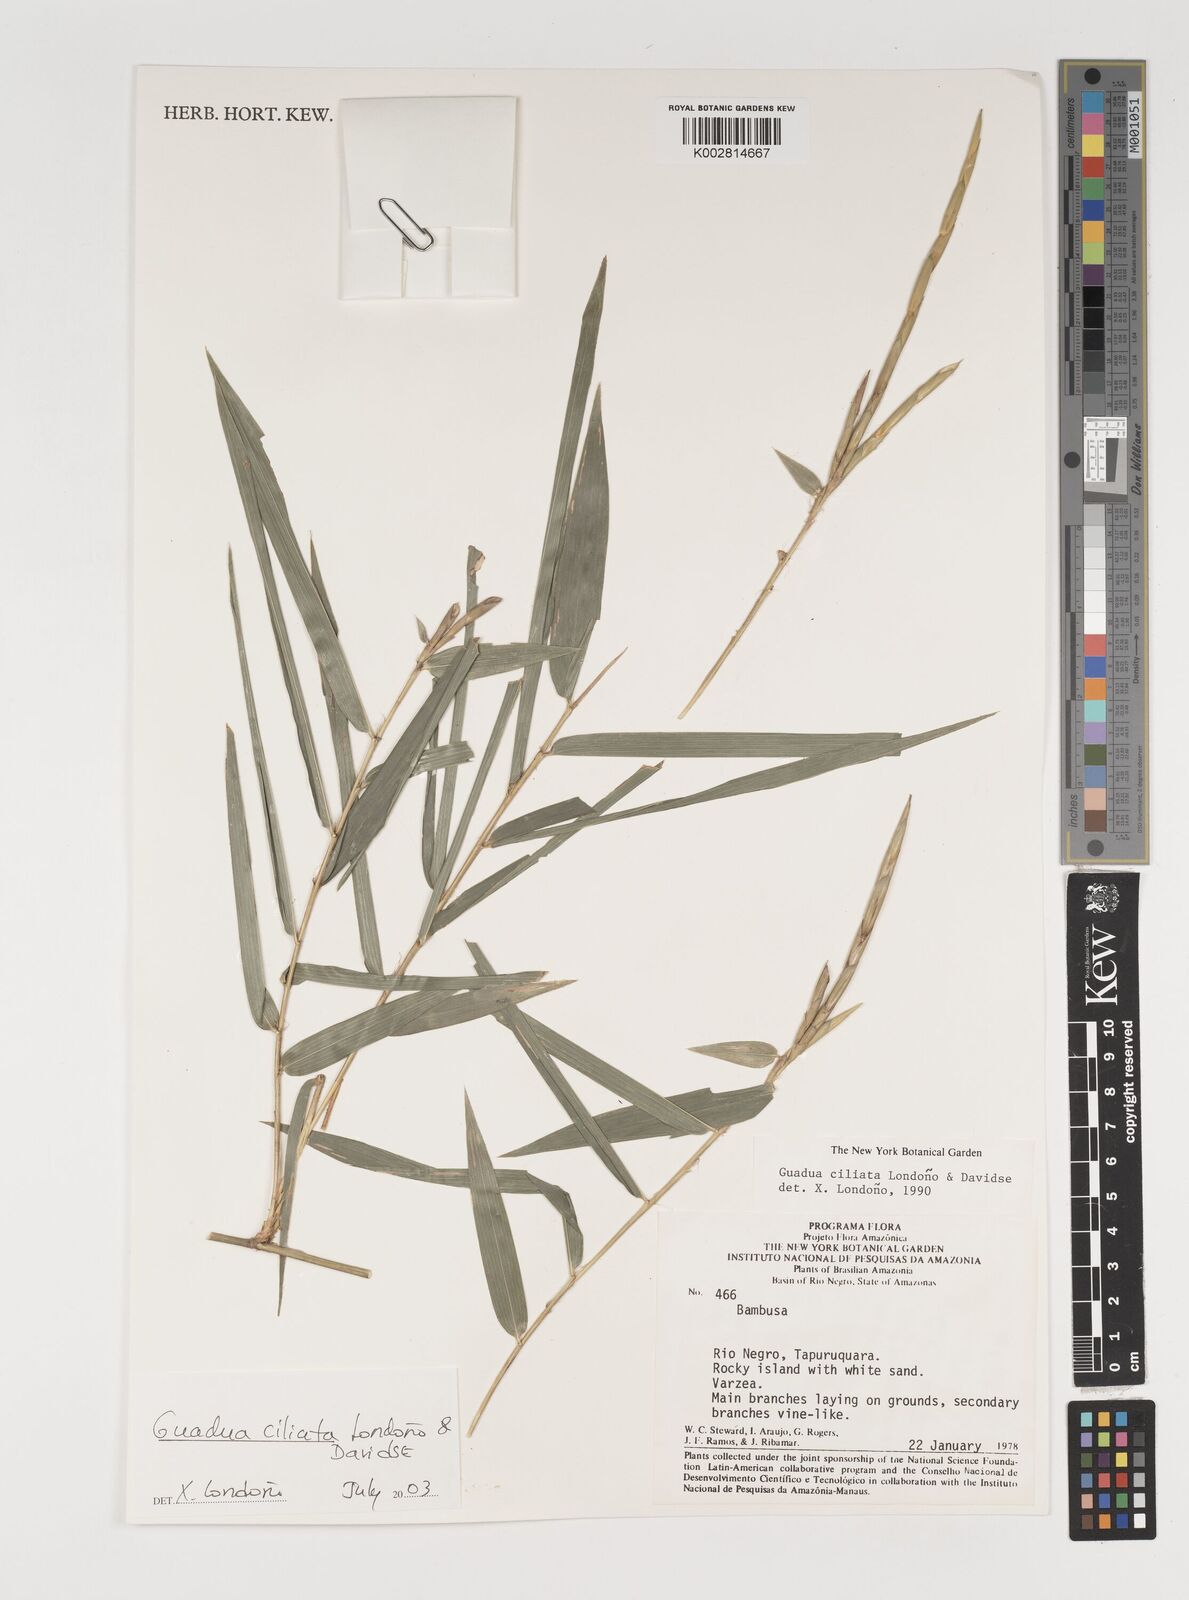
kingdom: Plantae
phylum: Tracheophyta
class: Liliopsida
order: Poales
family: Poaceae
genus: Guadua
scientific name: Guadua ciliata
